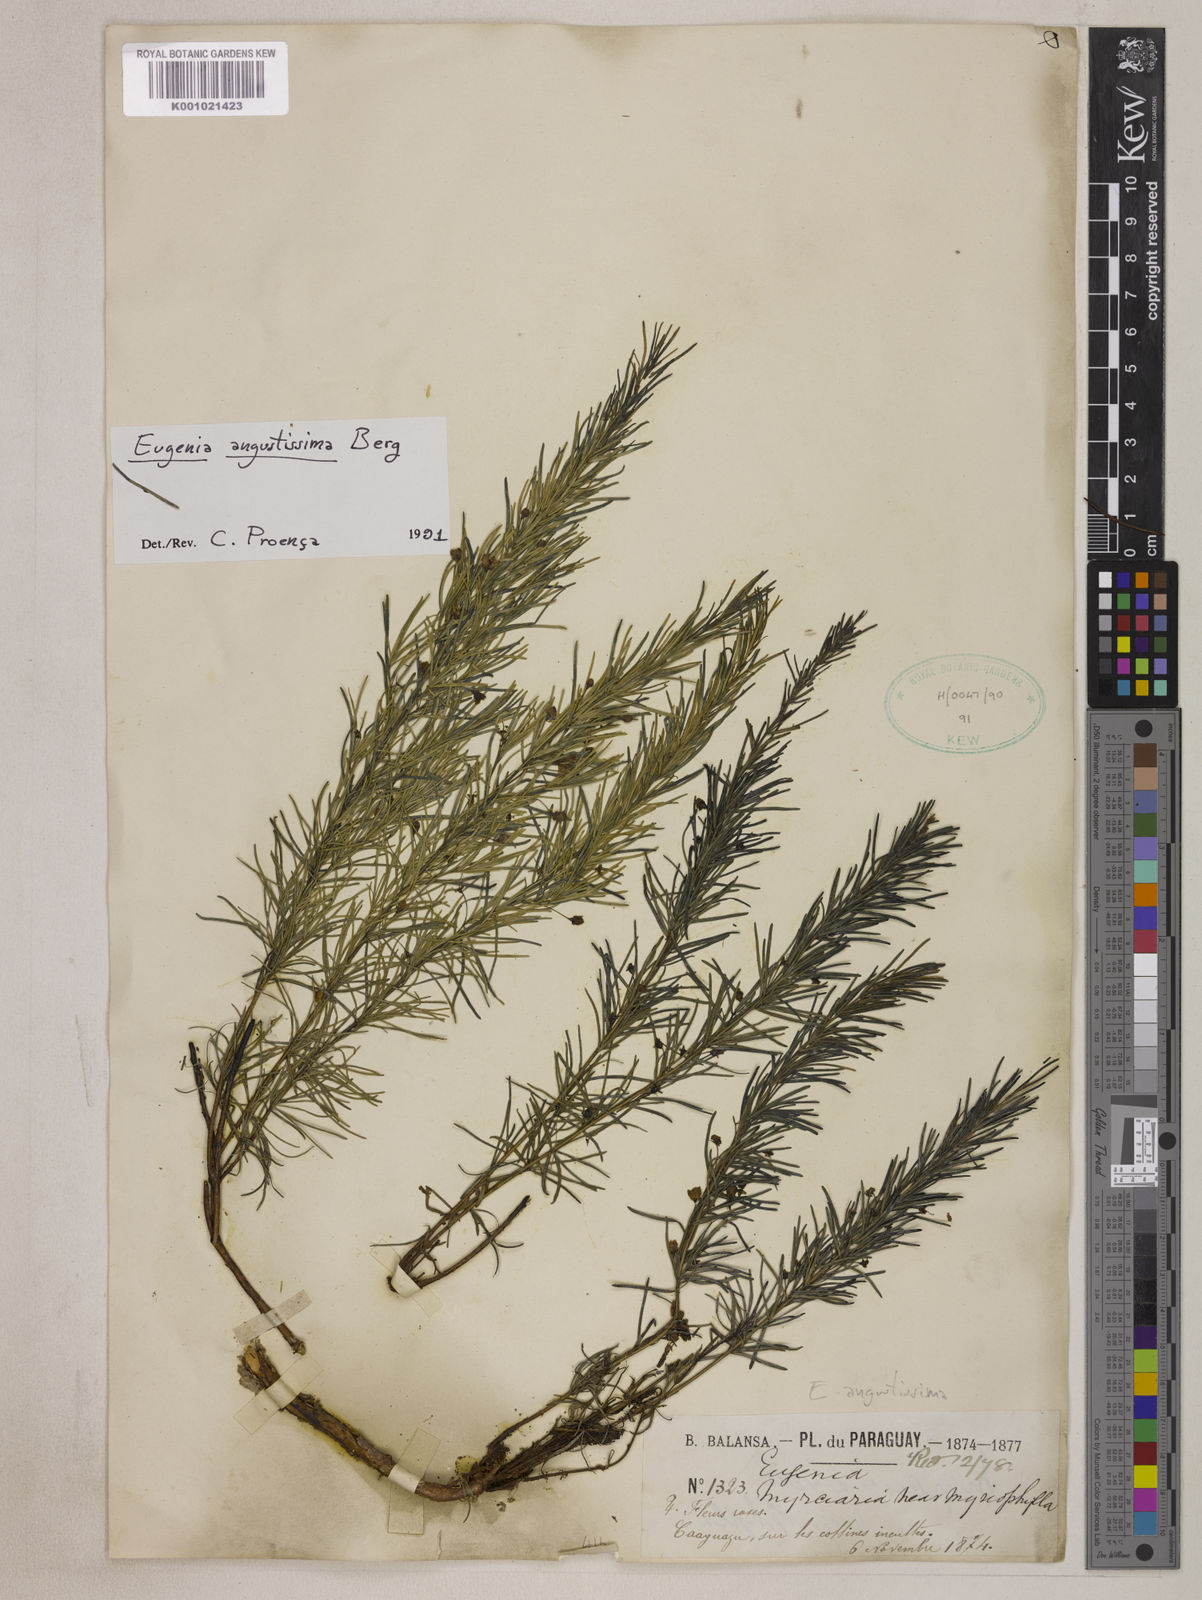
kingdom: Plantae
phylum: Tracheophyta
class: Magnoliopsida
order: Myrtales
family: Myrtaceae
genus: Eugenia
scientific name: Eugenia angustissima
